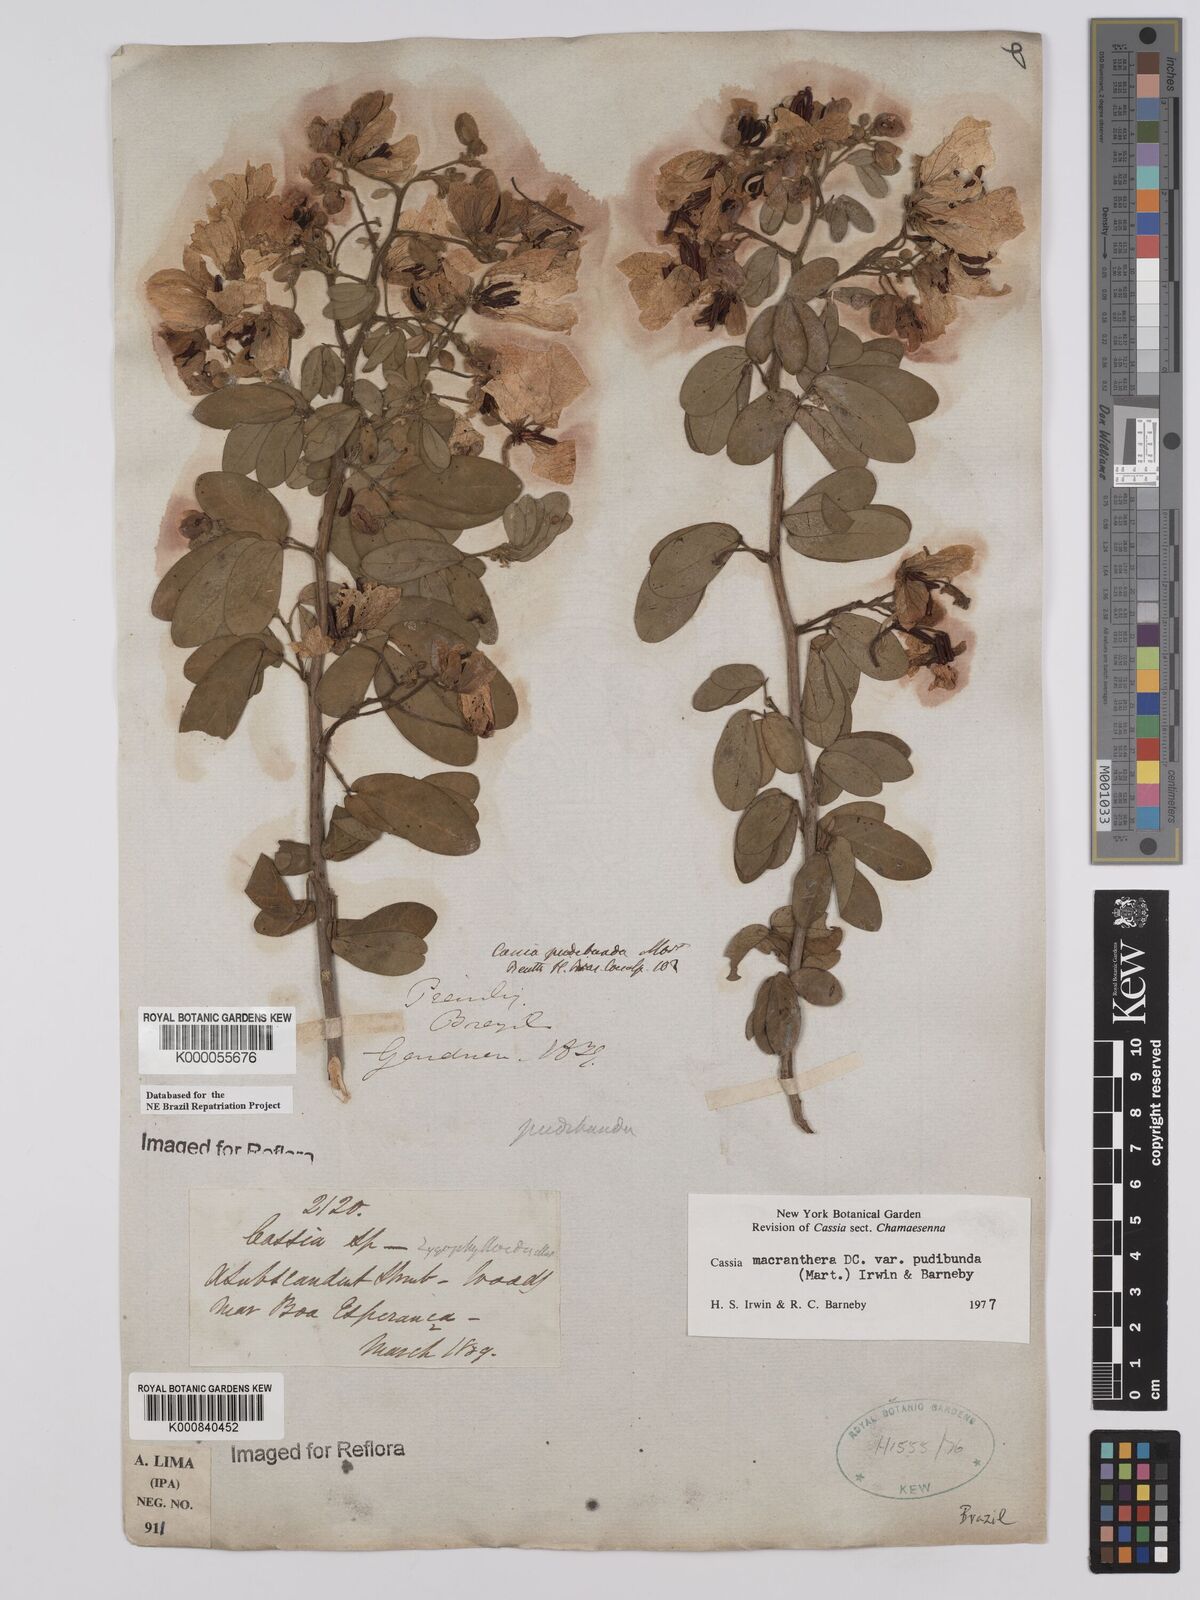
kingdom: Plantae
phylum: Tracheophyta
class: Magnoliopsida
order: Fabales
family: Fabaceae
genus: Senna
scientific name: Senna macranthera
